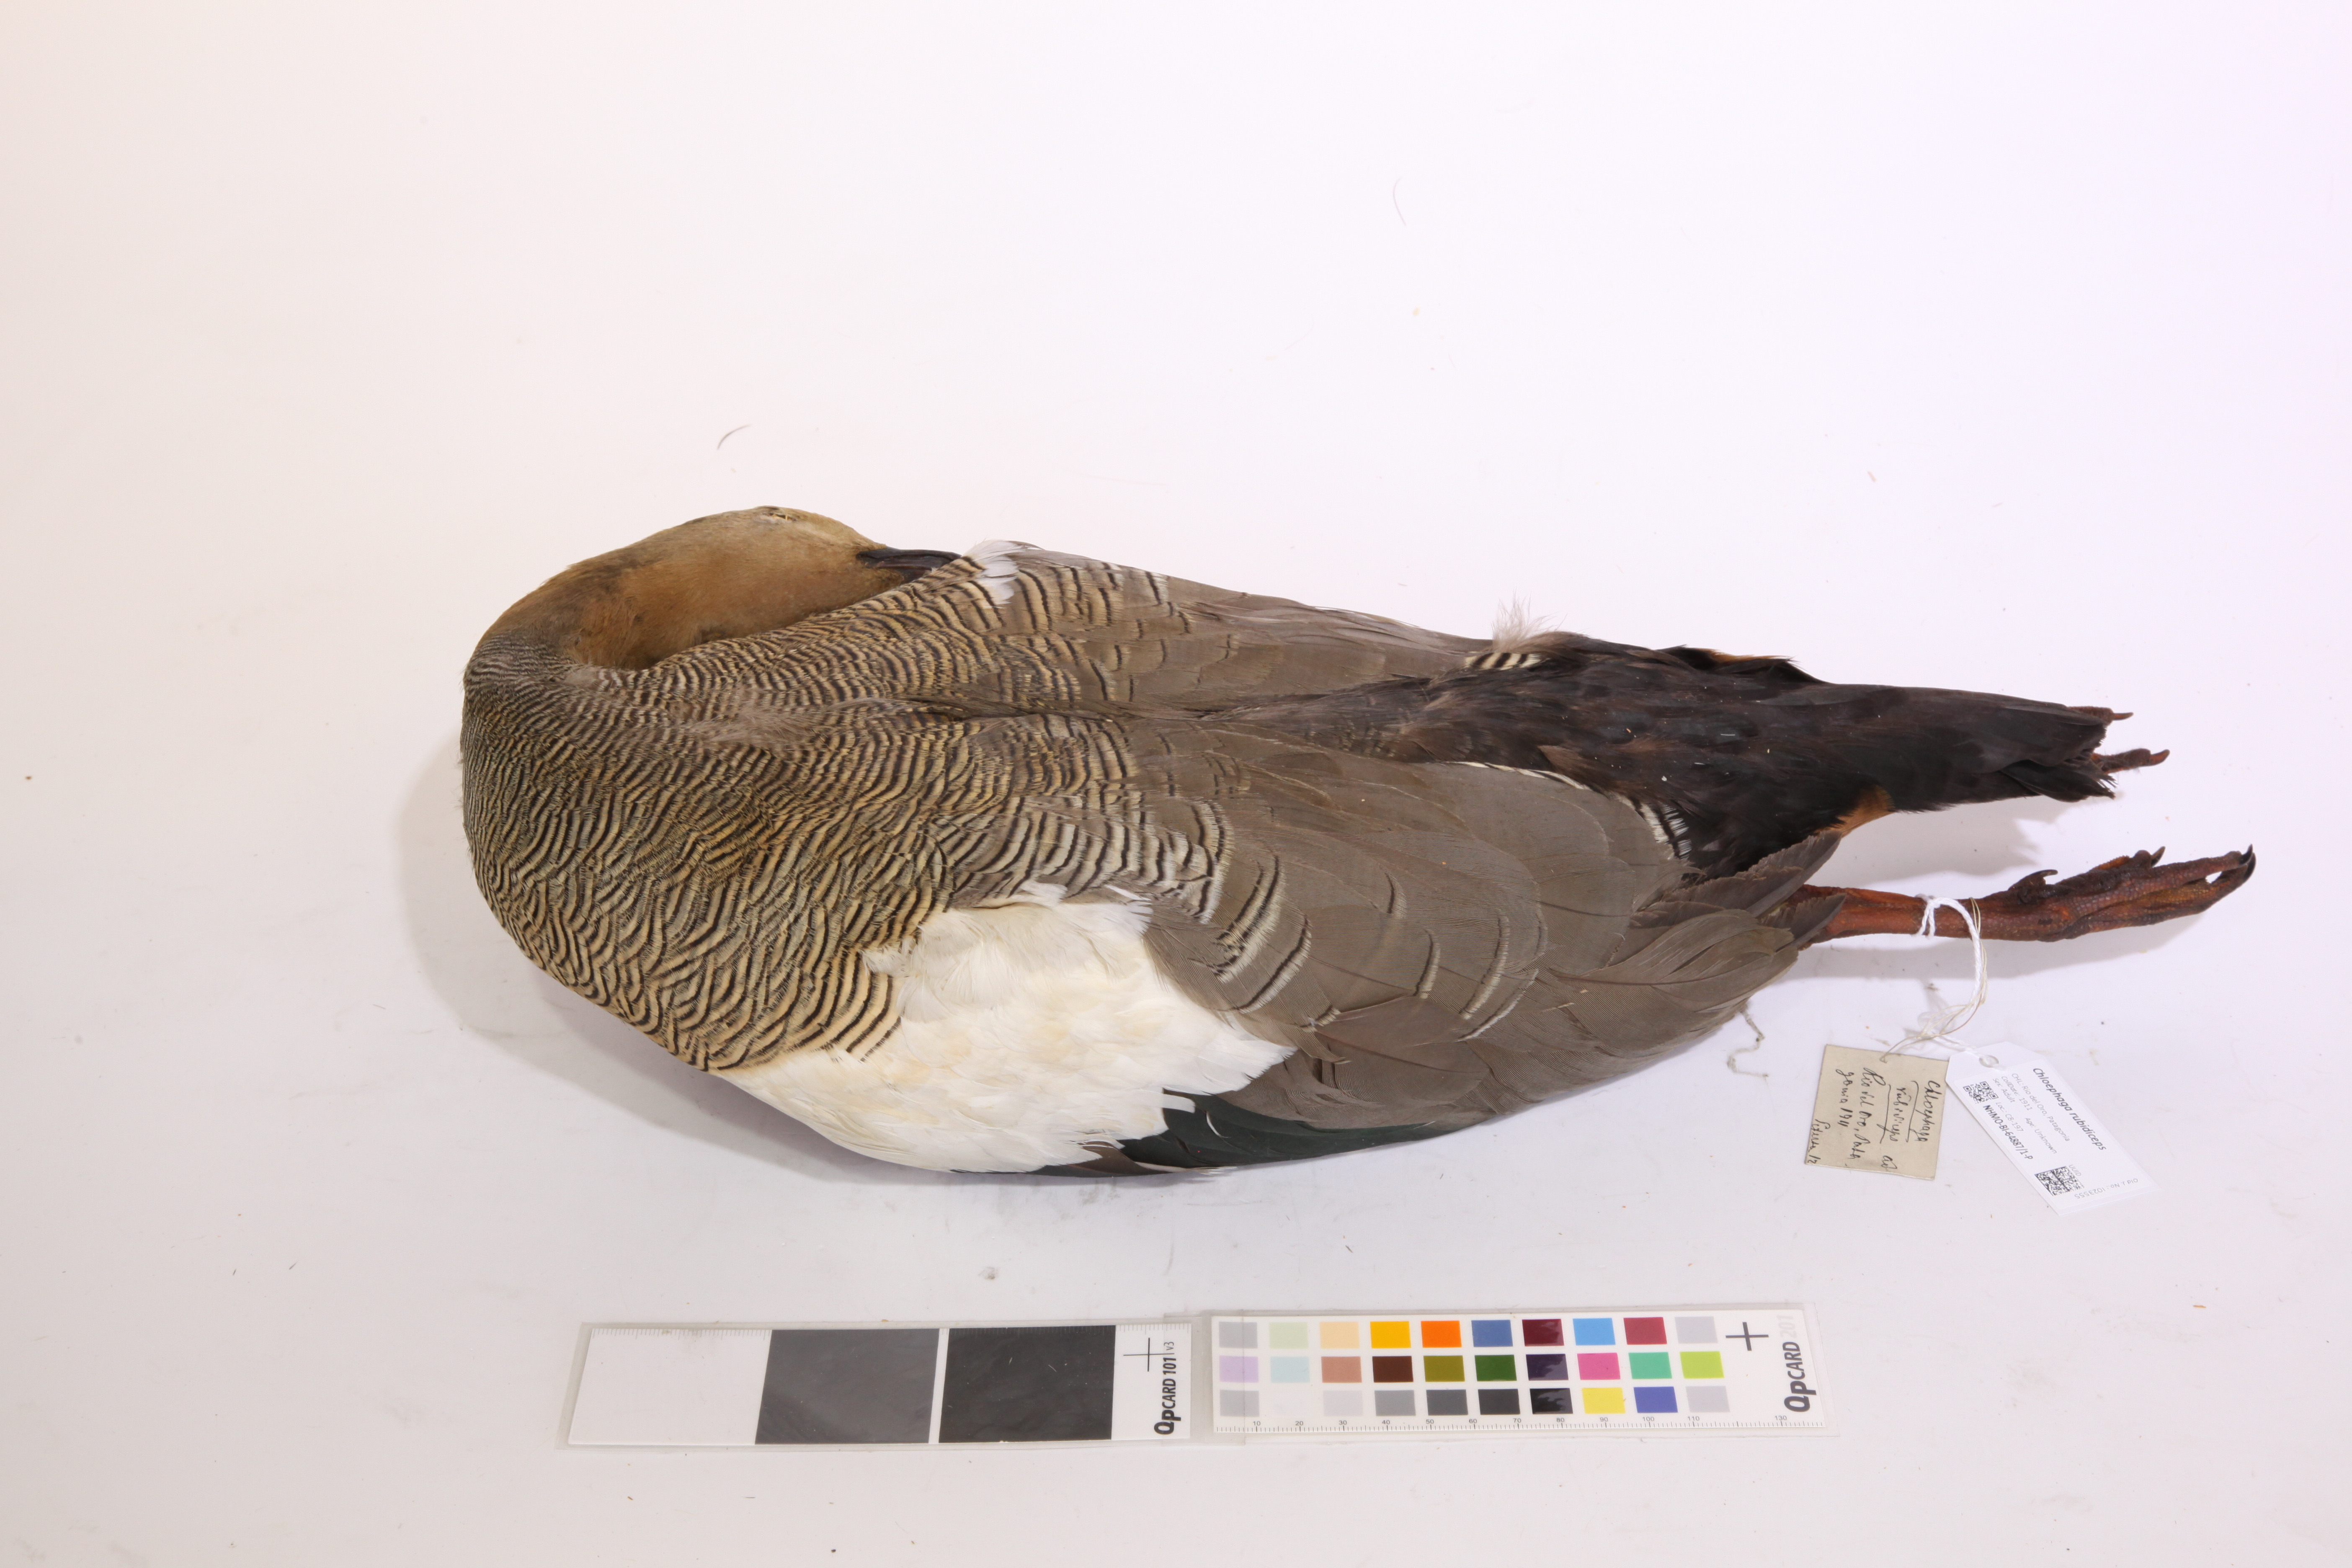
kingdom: Animalia
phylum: Chordata
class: Aves
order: Anseriformes
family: Anatidae
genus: Chloephaga
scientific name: Chloephaga rubidiceps
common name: Ruddy-headed goose
